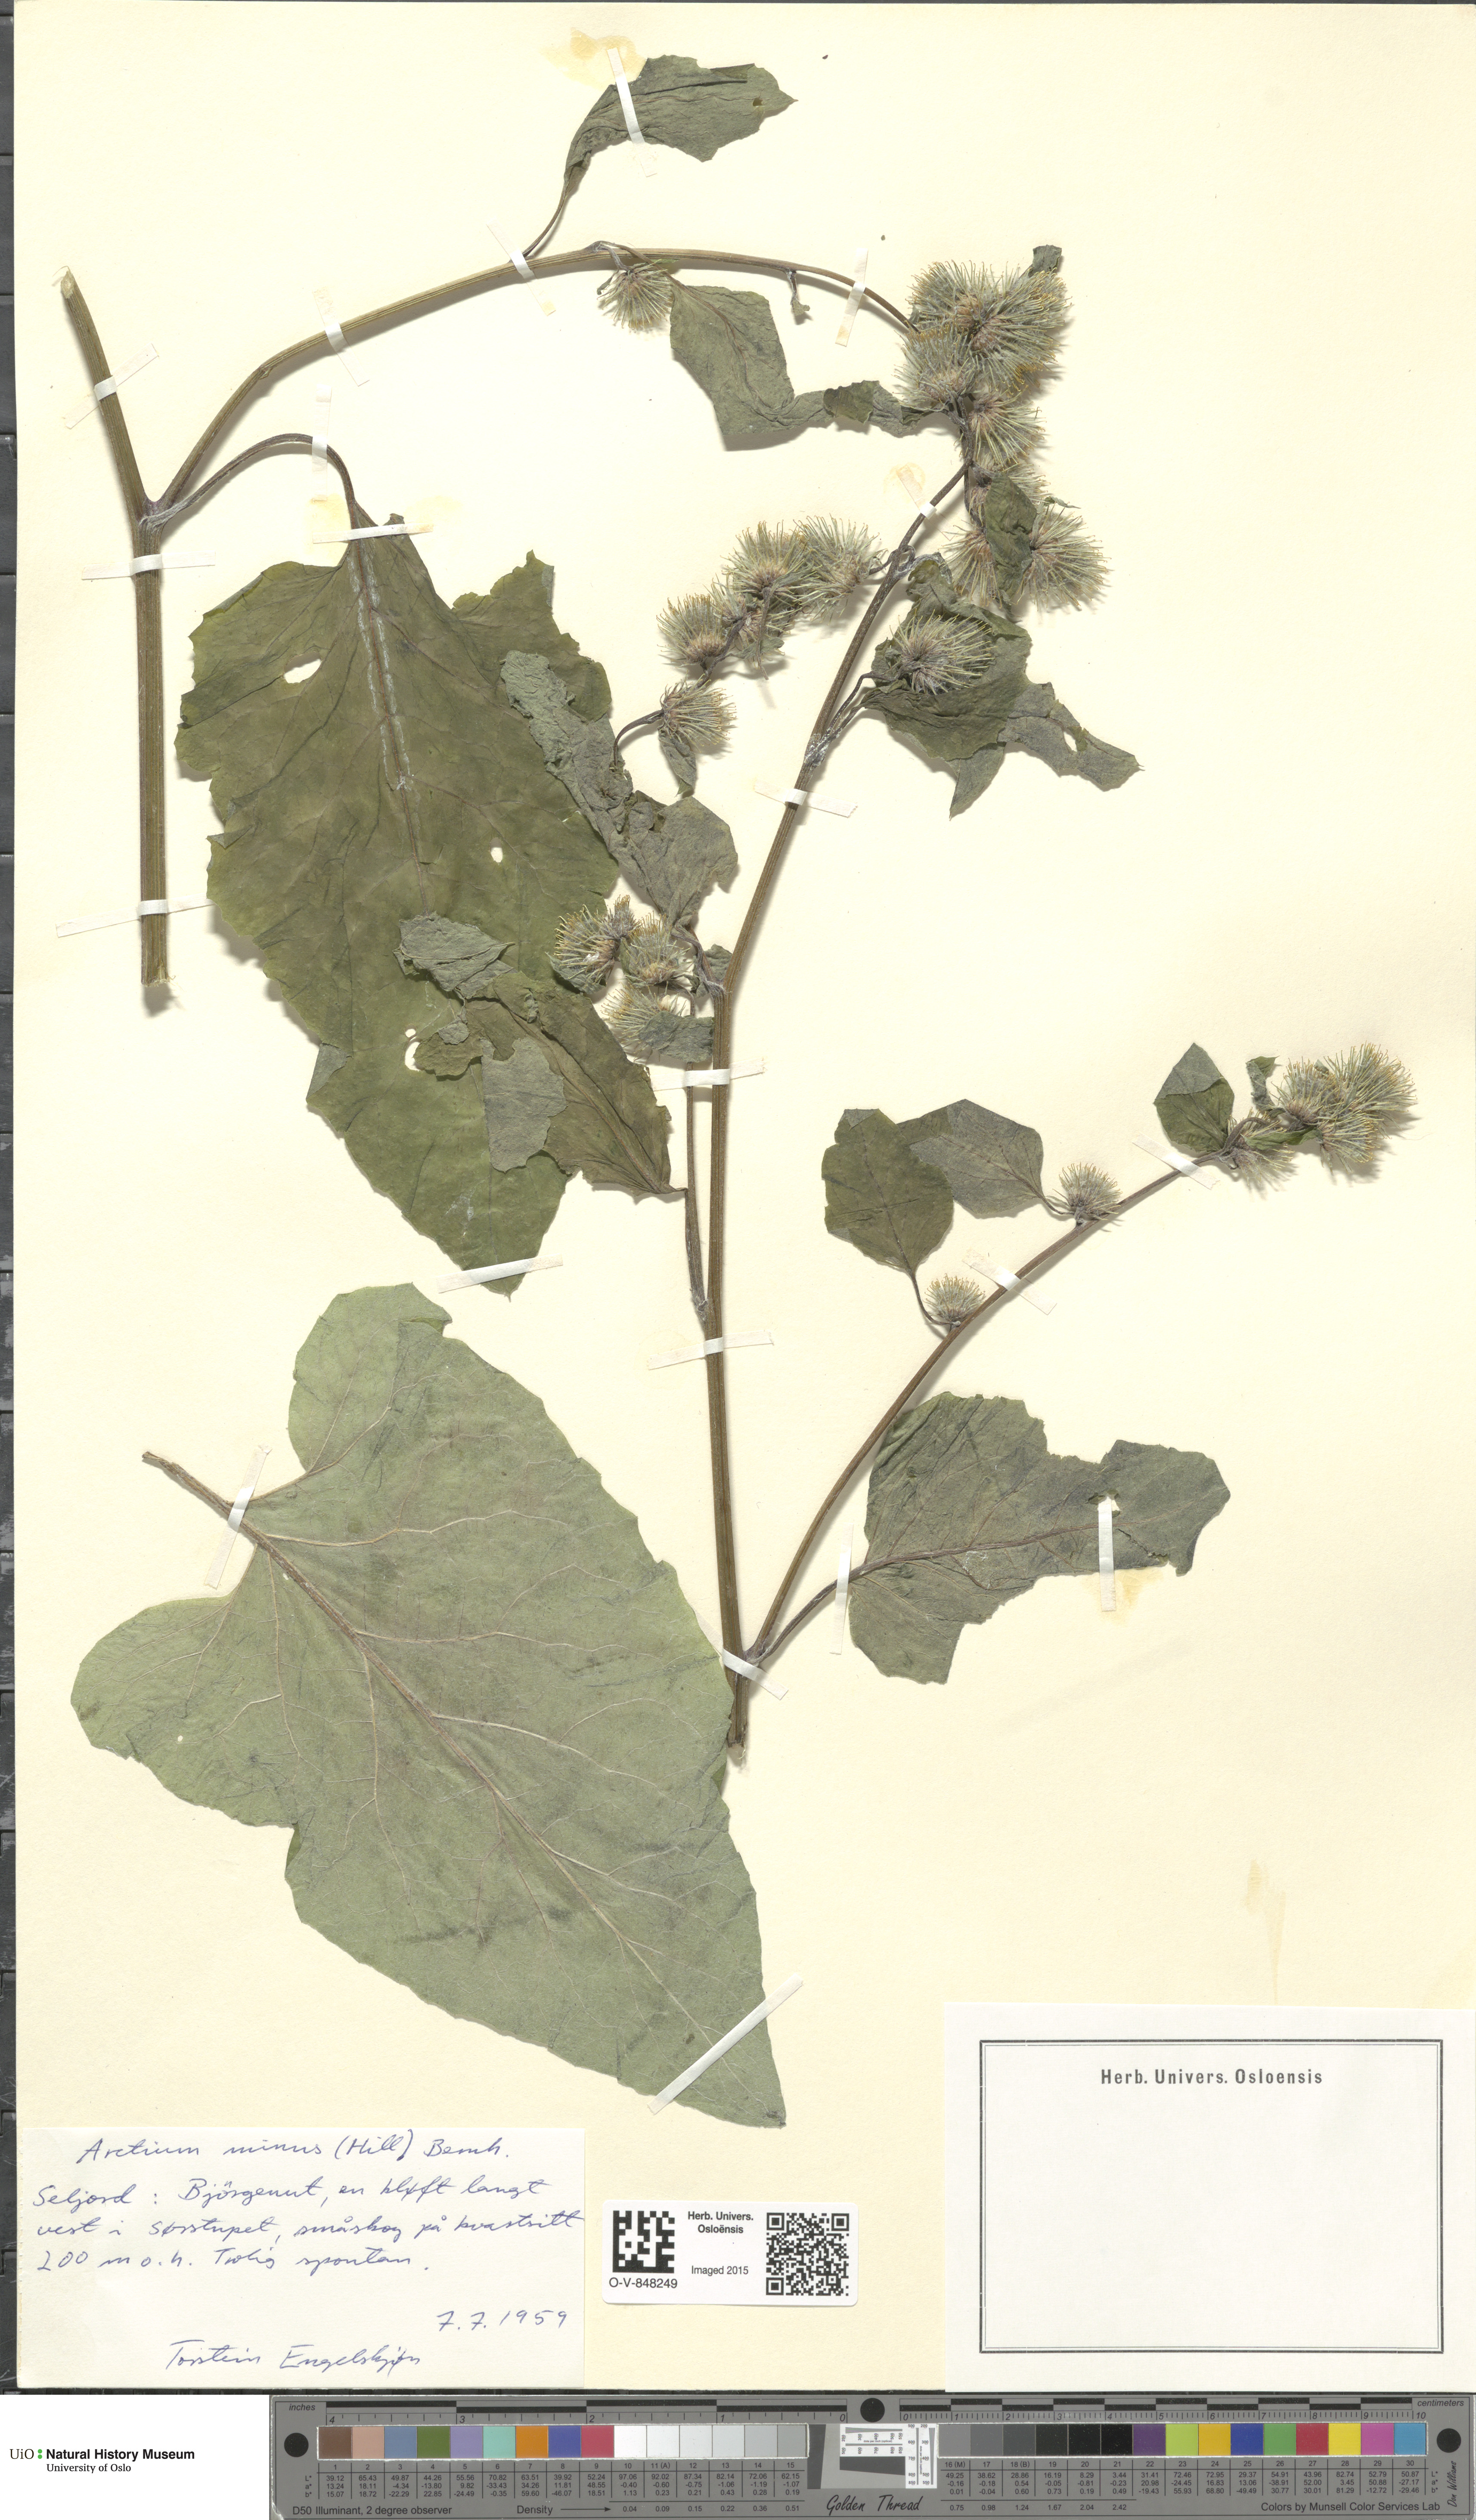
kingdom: Plantae
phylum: Tracheophyta
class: Magnoliopsida
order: Asterales
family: Asteraceae
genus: Arctium
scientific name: Arctium minus
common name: Lesser burdock
